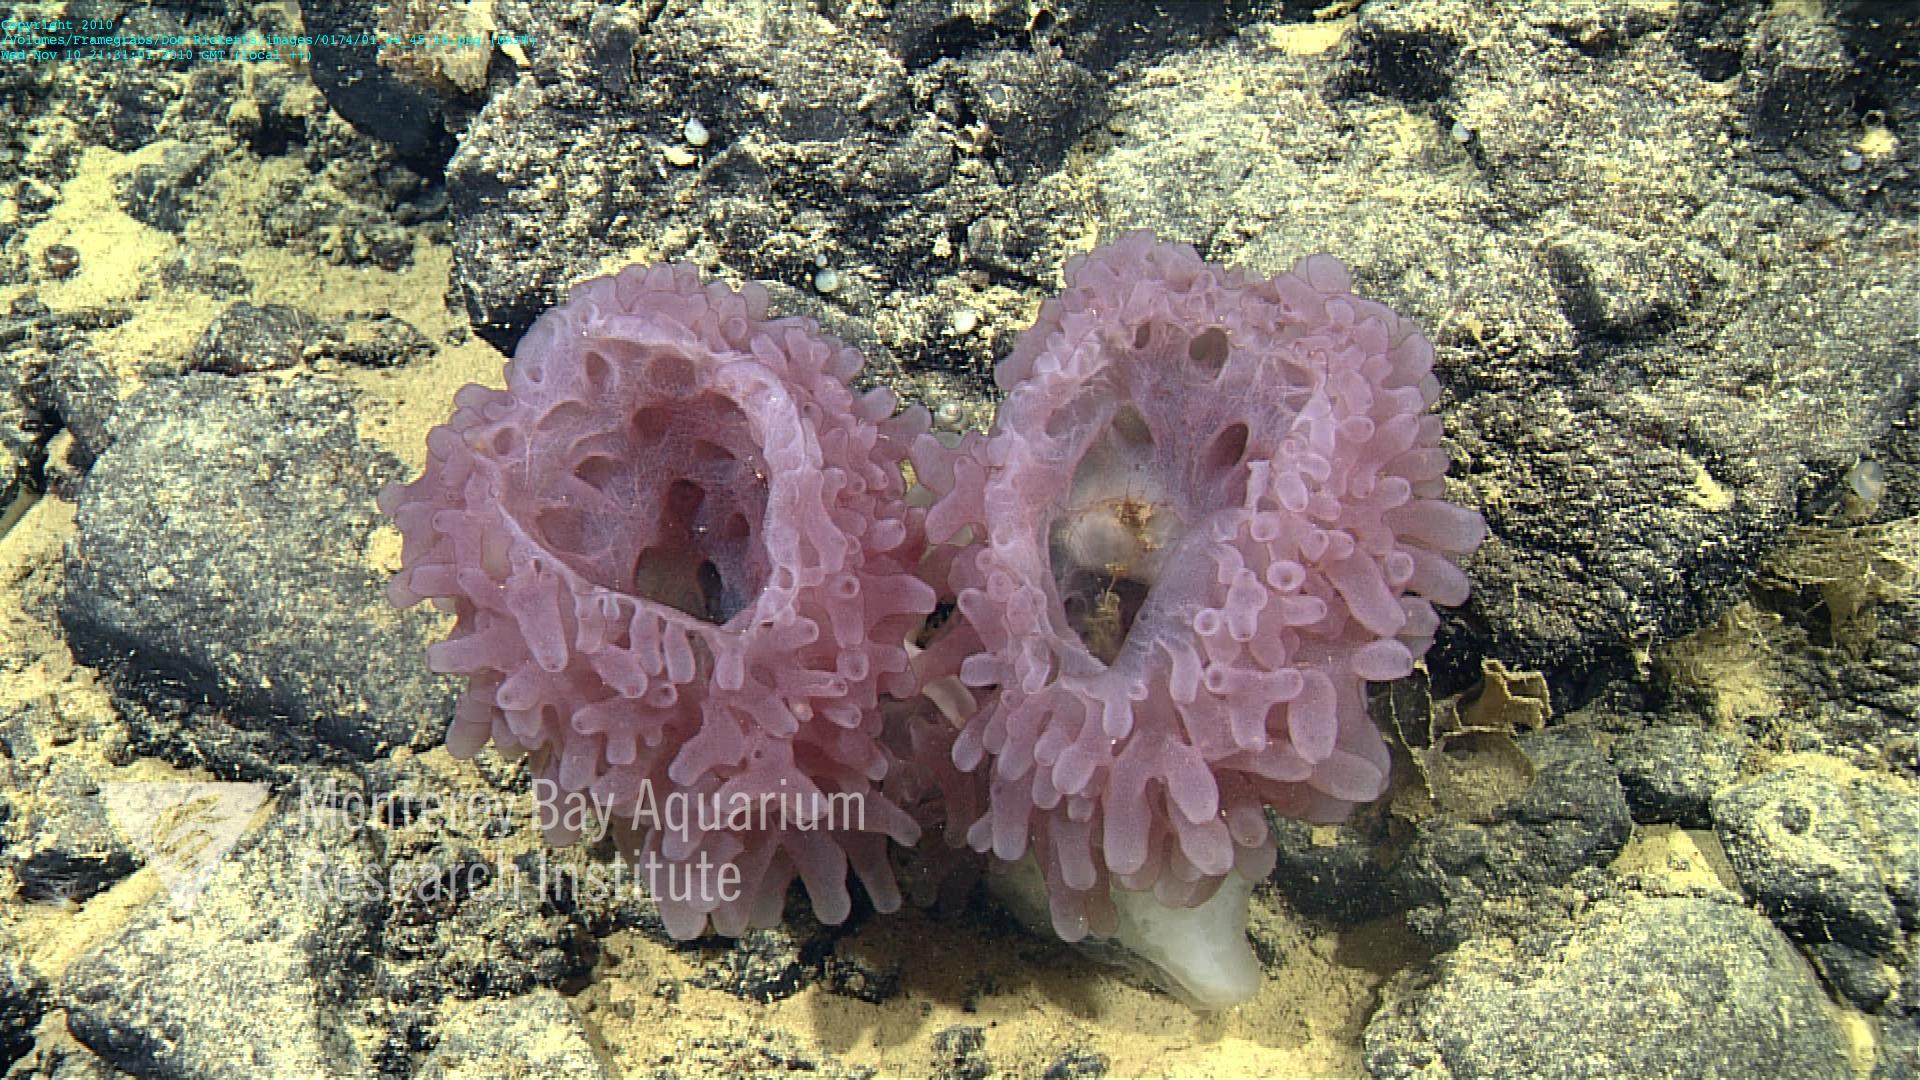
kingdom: Animalia
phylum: Porifera
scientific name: Porifera
